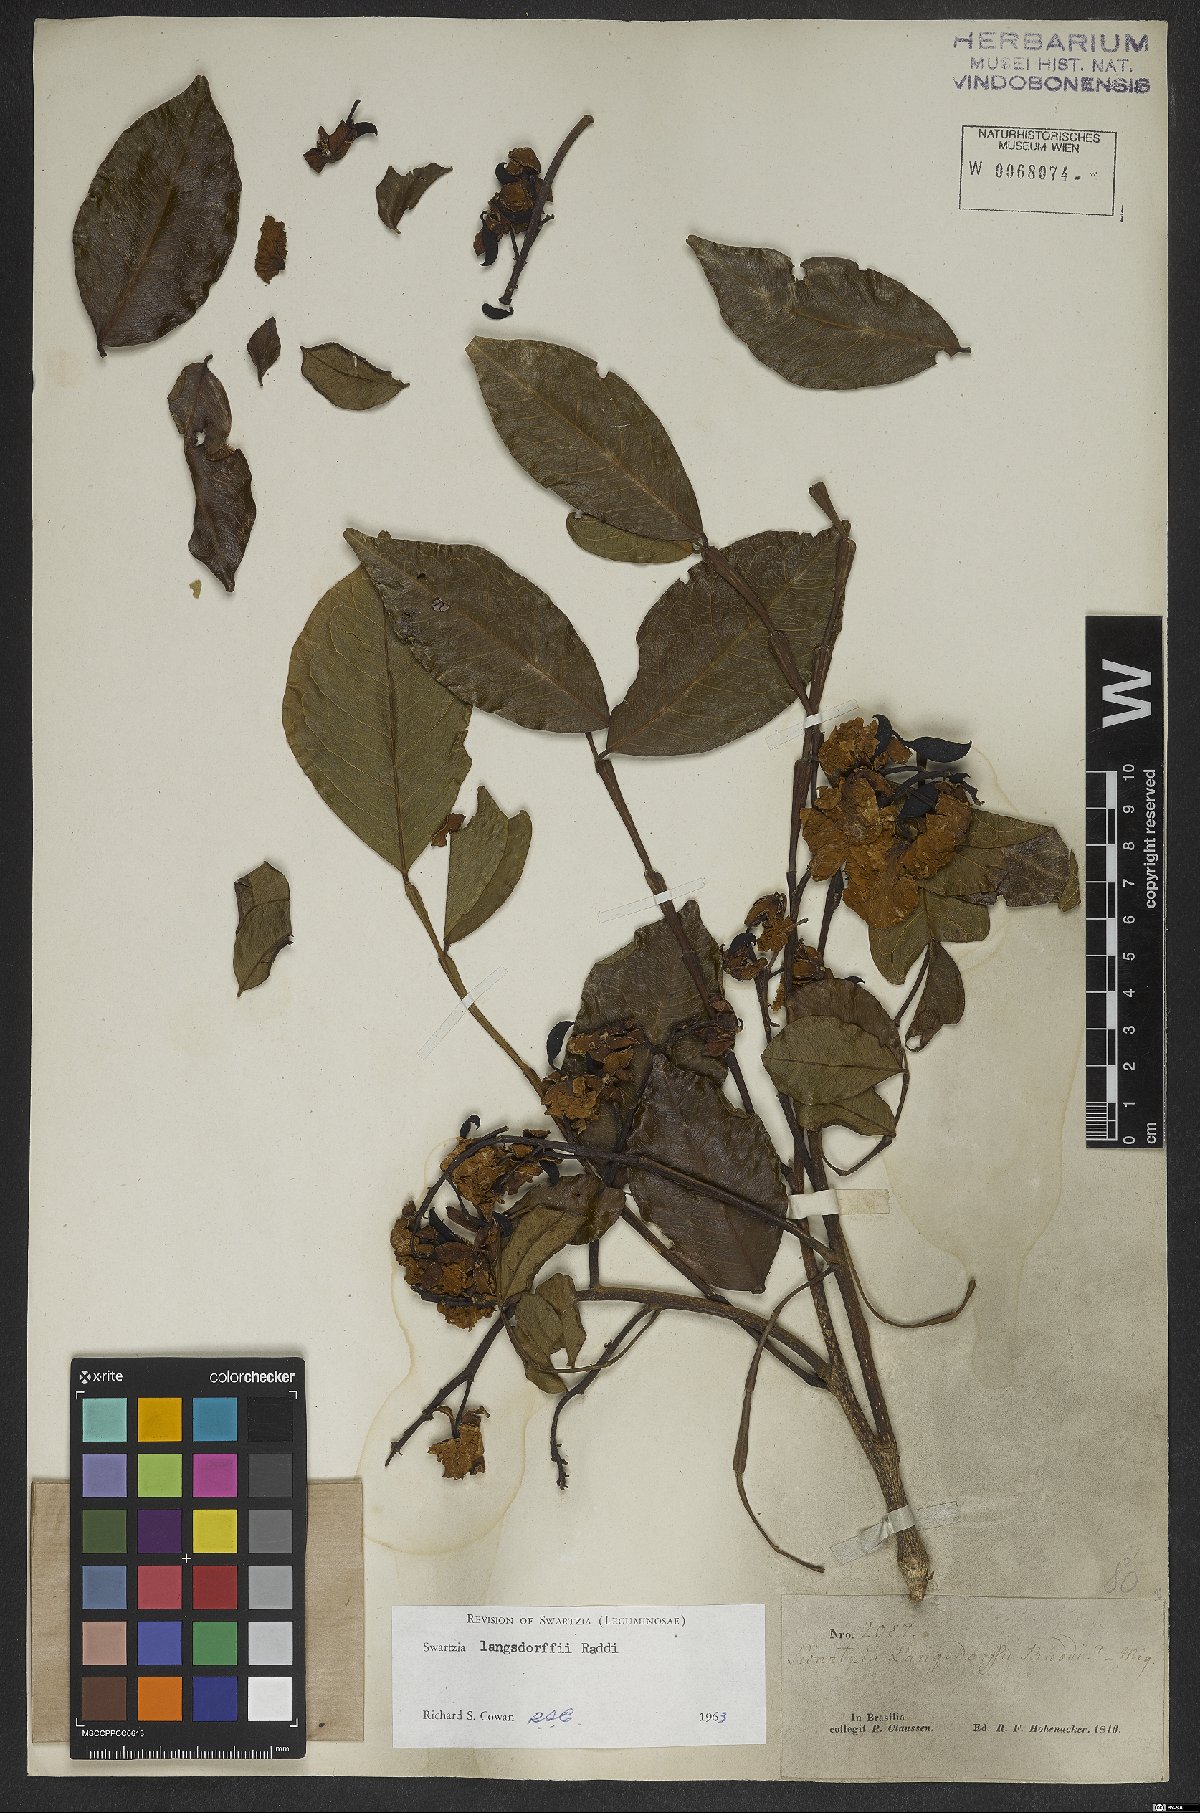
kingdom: Plantae
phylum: Tracheophyta
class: Magnoliopsida
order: Fabales
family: Fabaceae
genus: Swartzia
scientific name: Swartzia langsdorffii
